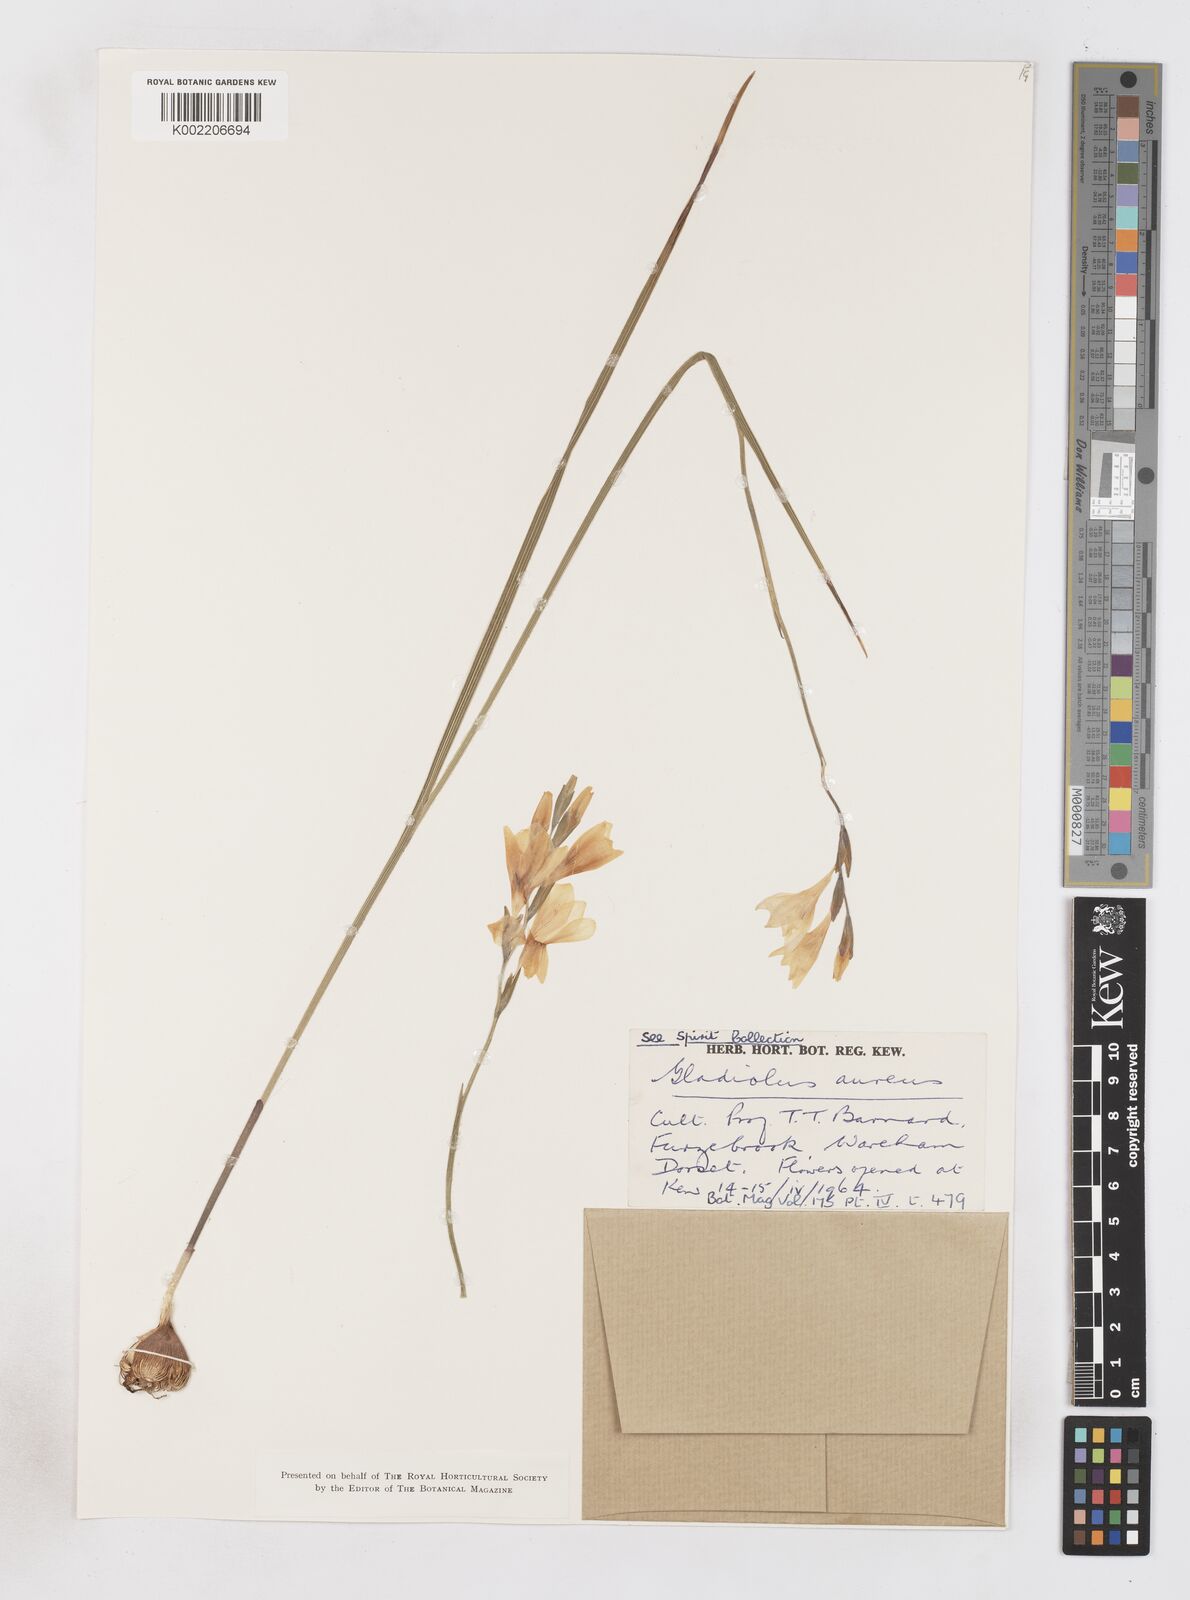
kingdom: Plantae
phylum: Tracheophyta
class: Liliopsida
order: Asparagales
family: Iridaceae
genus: Gladiolus
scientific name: Gladiolus aureus
